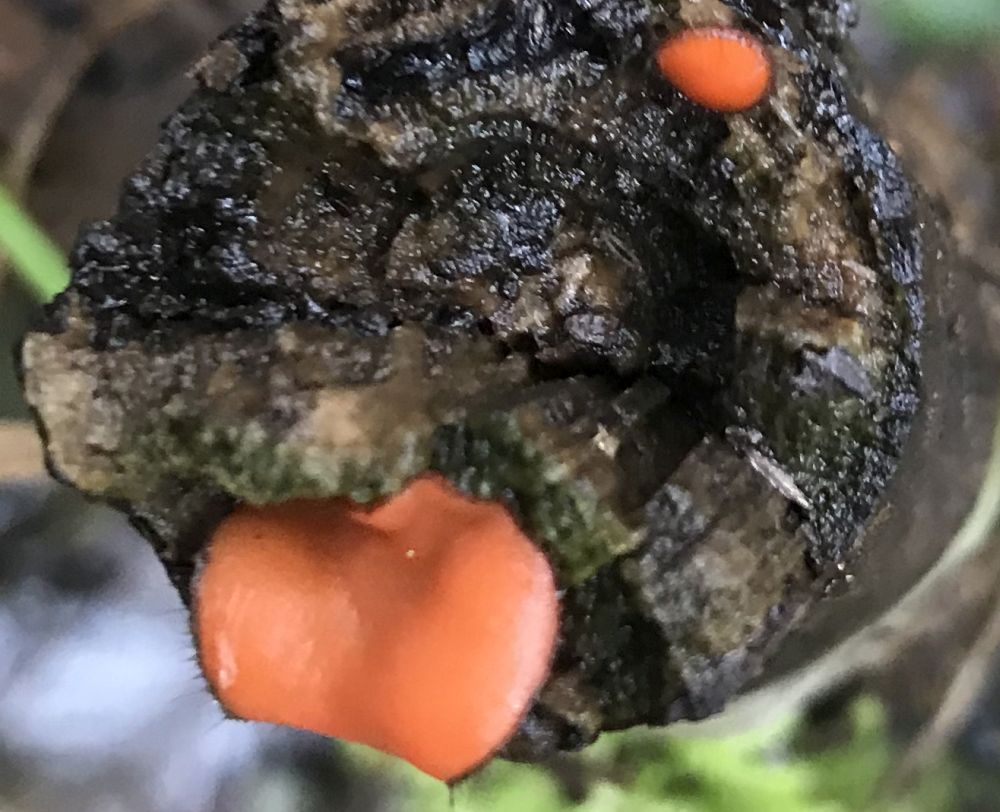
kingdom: Fungi
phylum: Ascomycota
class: Pezizomycetes
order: Pezizales
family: Pyronemataceae
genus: Scutellinia
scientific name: Scutellinia scutellata
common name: frynset skjoldbæger
